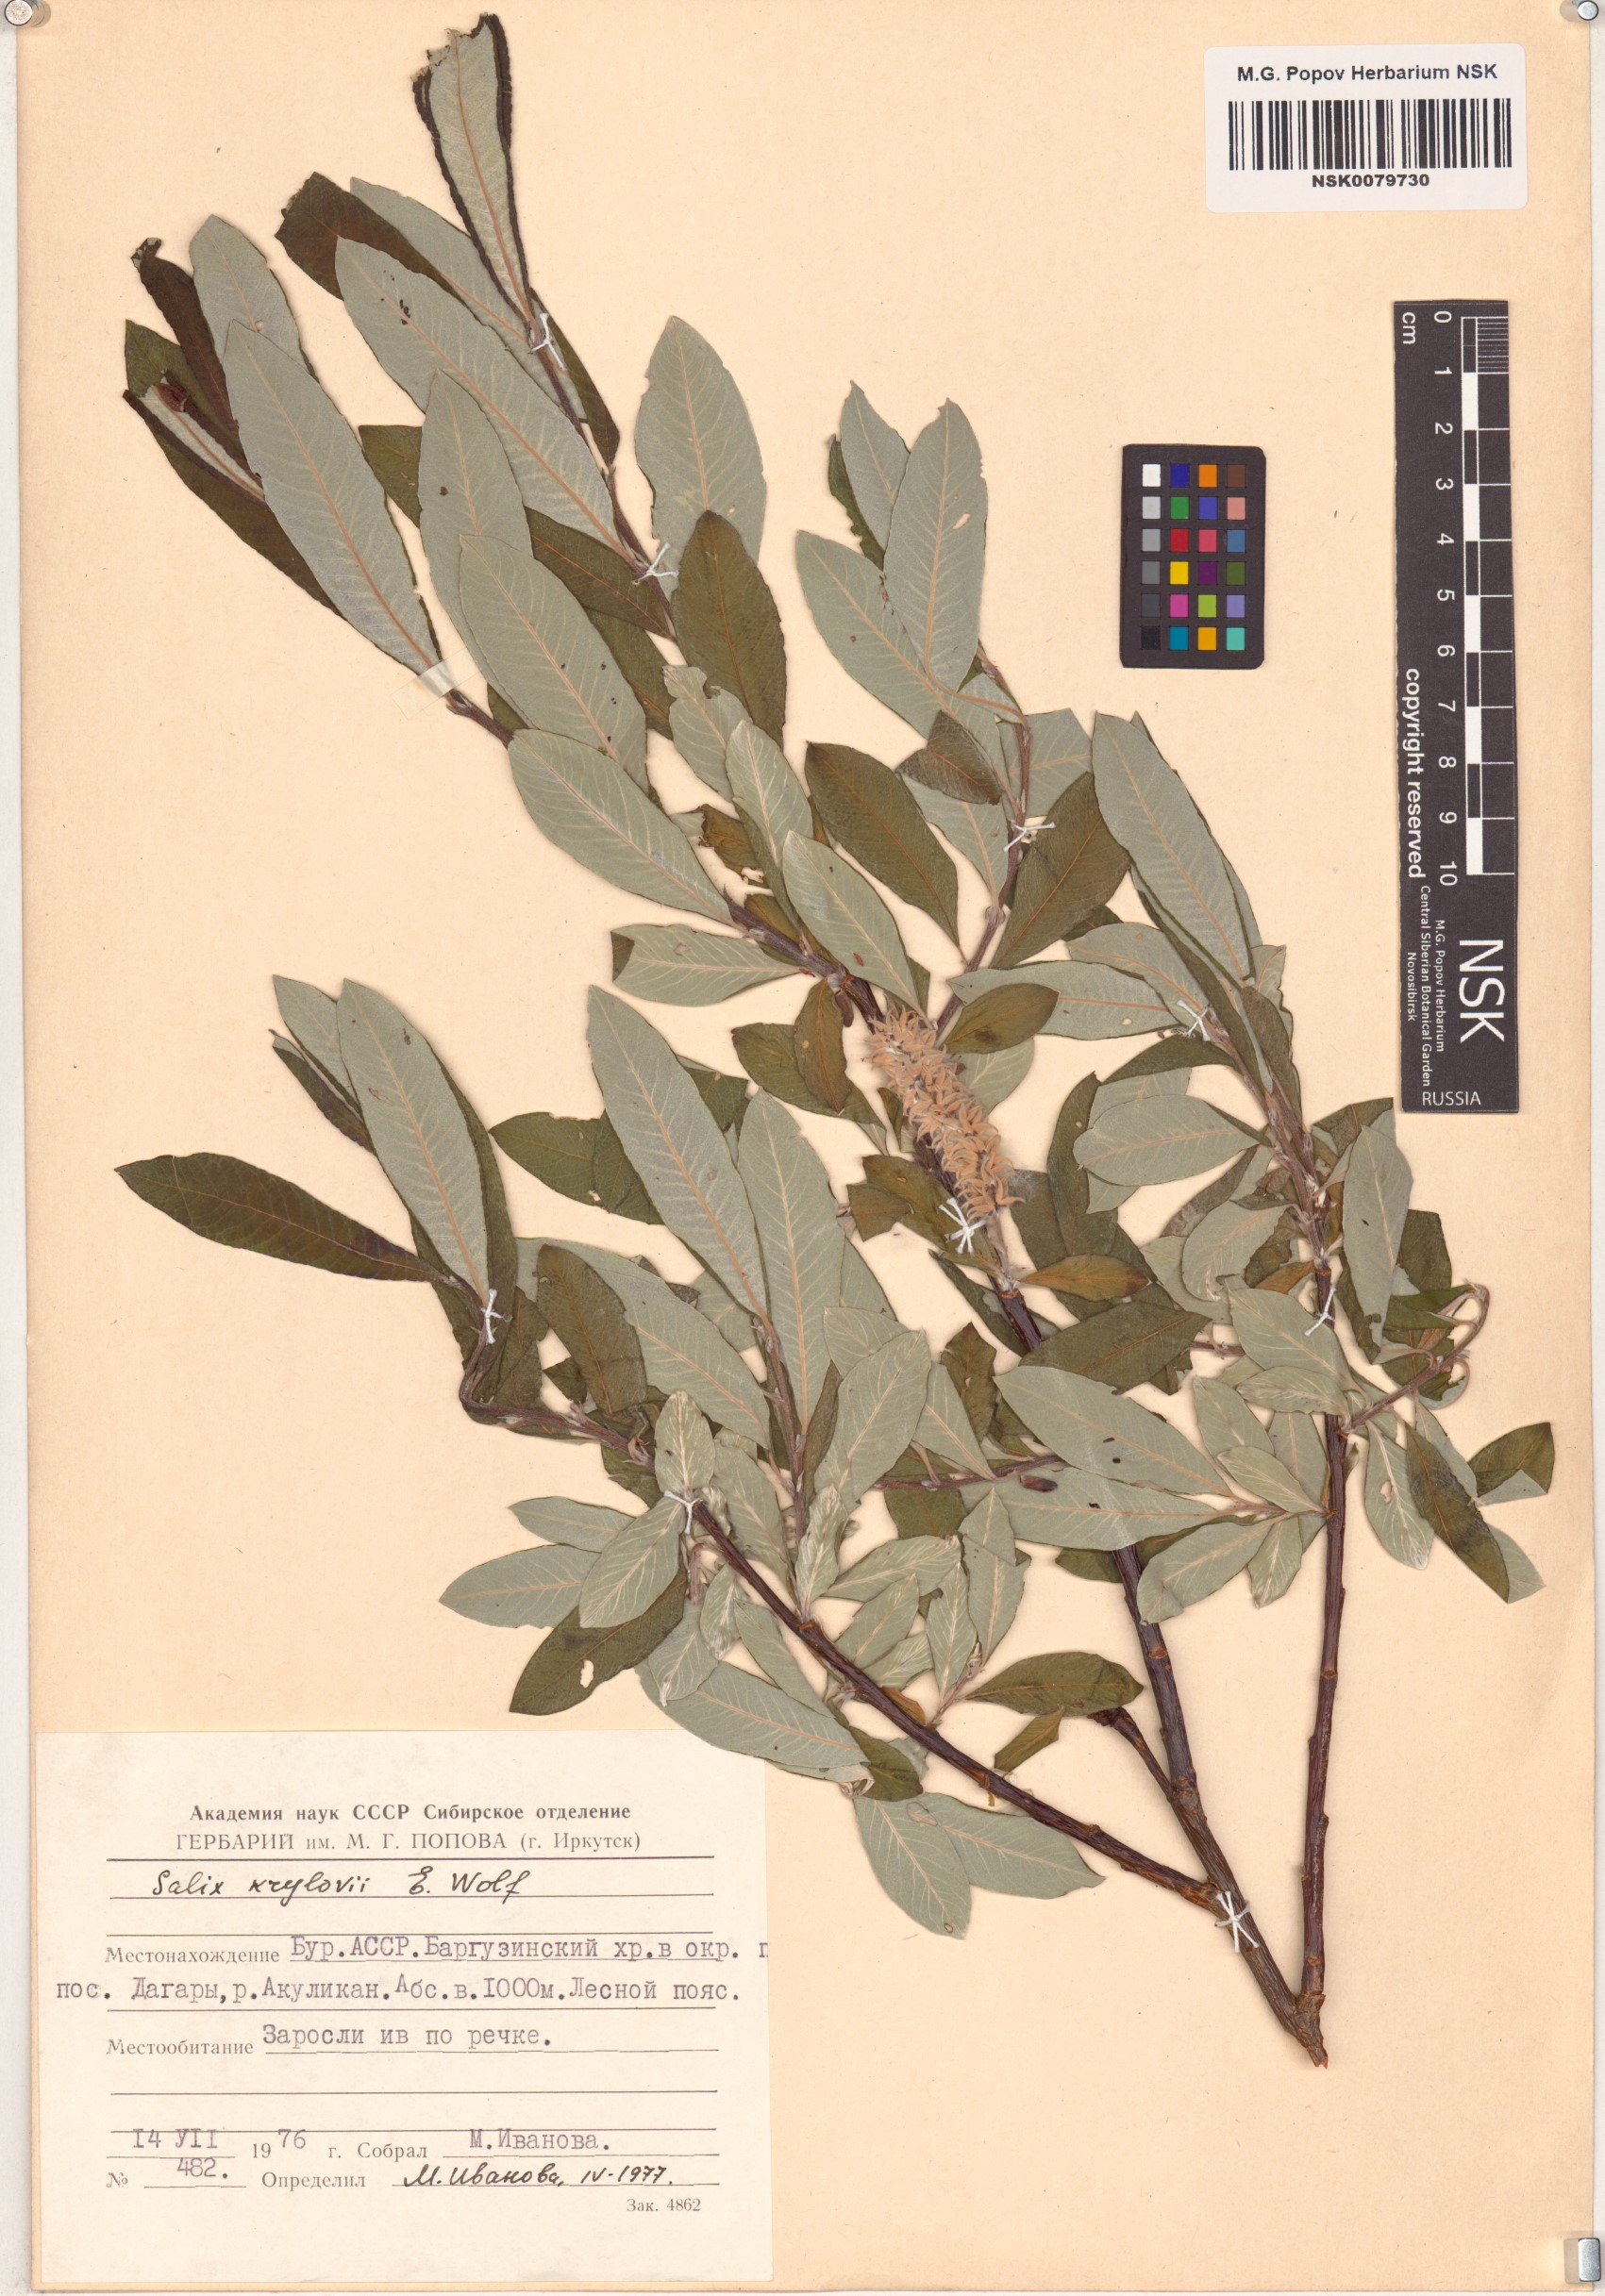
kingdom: Plantae
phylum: Tracheophyta
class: Magnoliopsida
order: Malpighiales
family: Salicaceae
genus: Salix
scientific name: Salix krylovii
